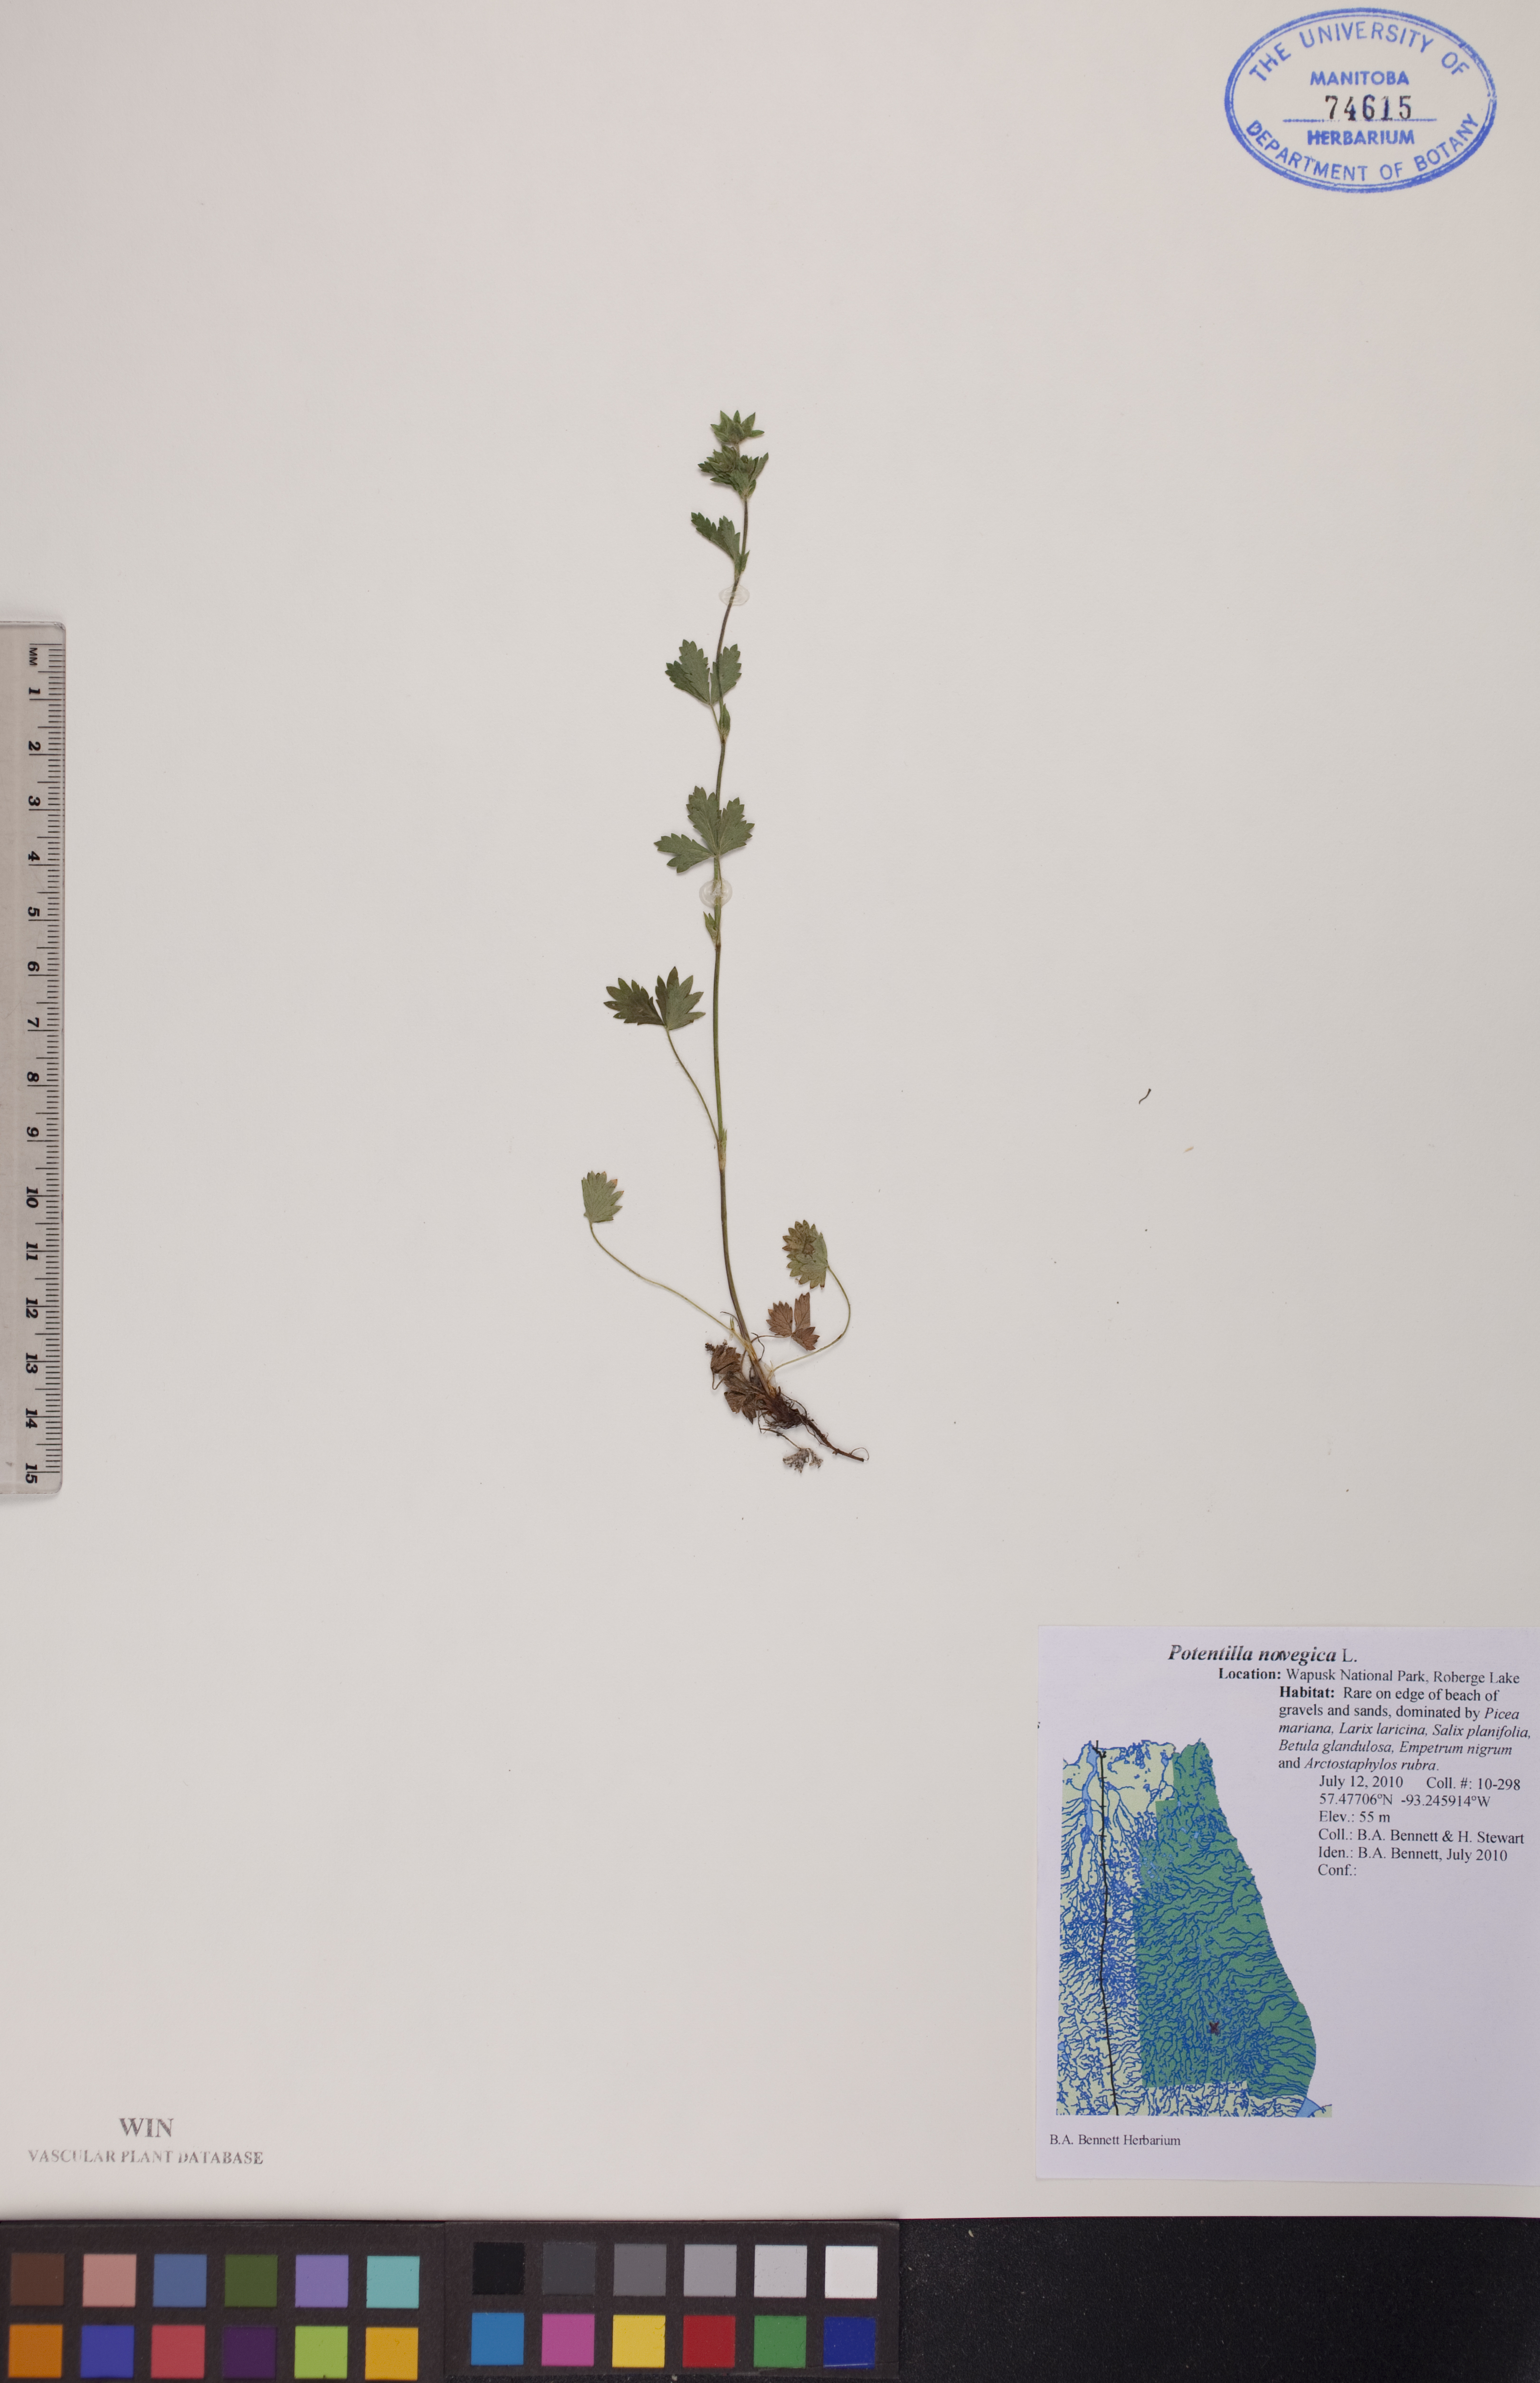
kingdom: Plantae
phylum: Tracheophyta
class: Magnoliopsida
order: Rosales
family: Rosaceae
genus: Potentilla
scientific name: Potentilla norvegica
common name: Ternate-leaved cinquefoil
